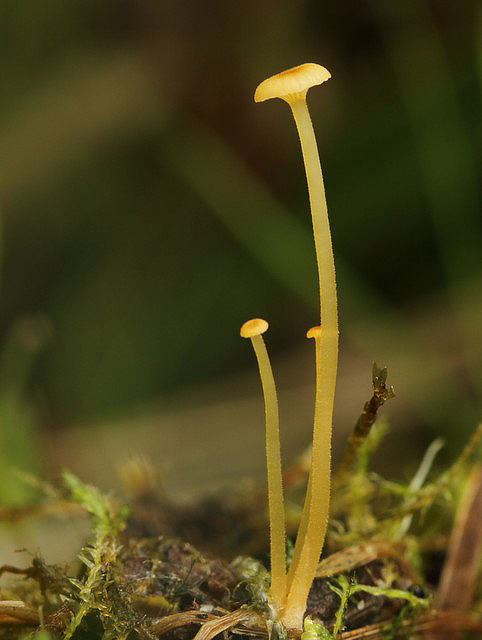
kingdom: Fungi
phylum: Basidiomycota
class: Agaricomycetes
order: Hymenochaetales
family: Rickenellaceae
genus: Rickenella
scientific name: Rickenella fibula
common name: orange mosnavlehat
